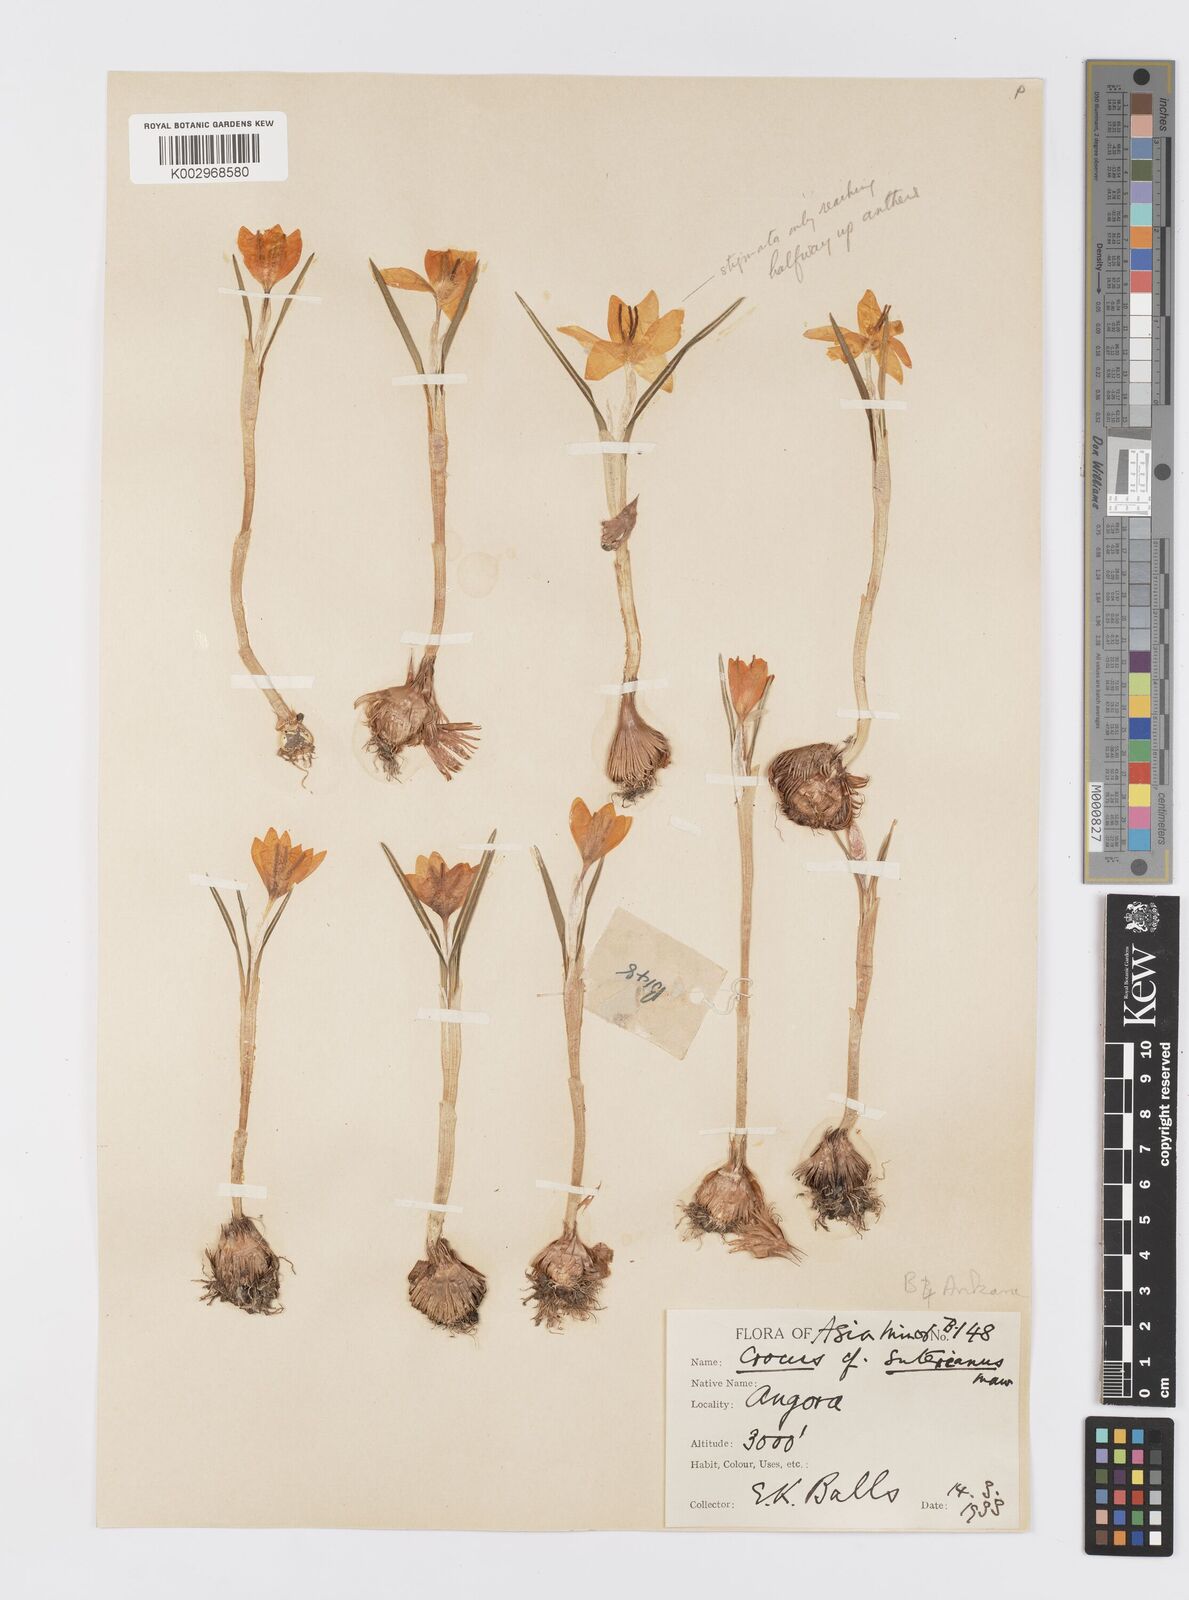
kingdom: Plantae
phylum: Tracheophyta
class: Liliopsida
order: Asparagales
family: Iridaceae
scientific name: Iridaceae
